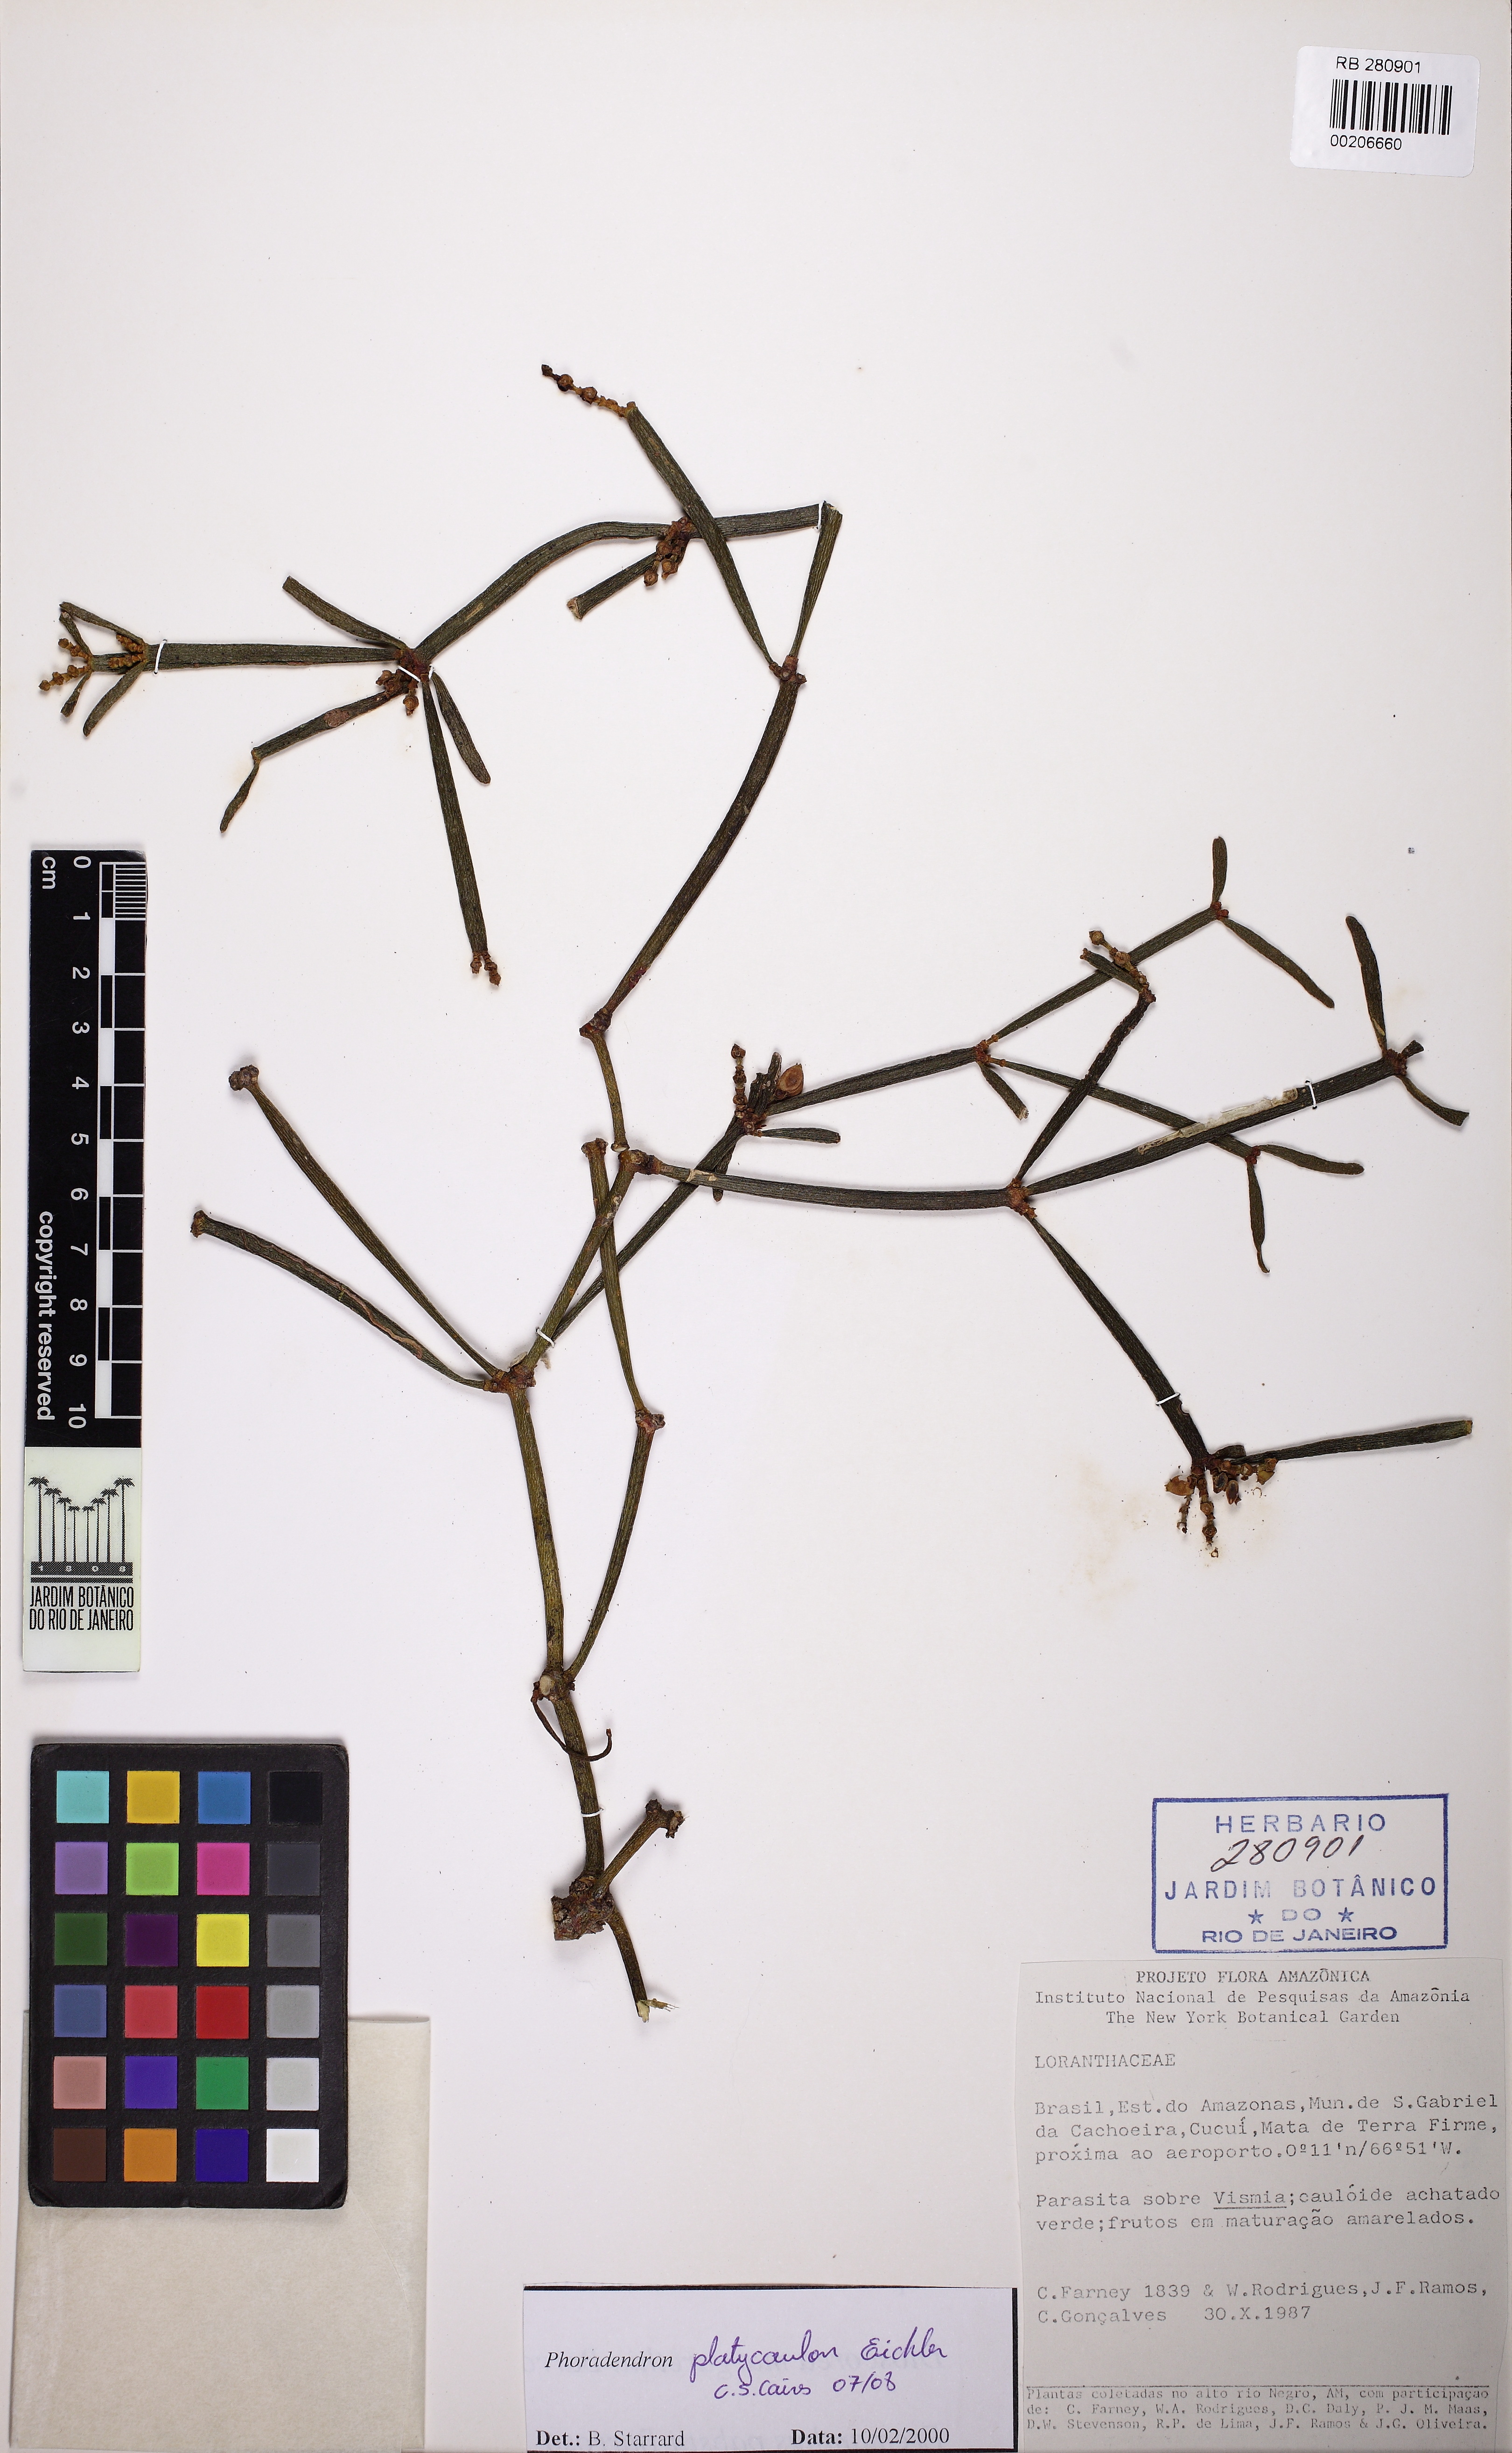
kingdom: Plantae
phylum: Tracheophyta
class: Magnoliopsida
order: Santalales
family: Viscaceae
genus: Phoradendron
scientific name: Phoradendron planiphyllum
